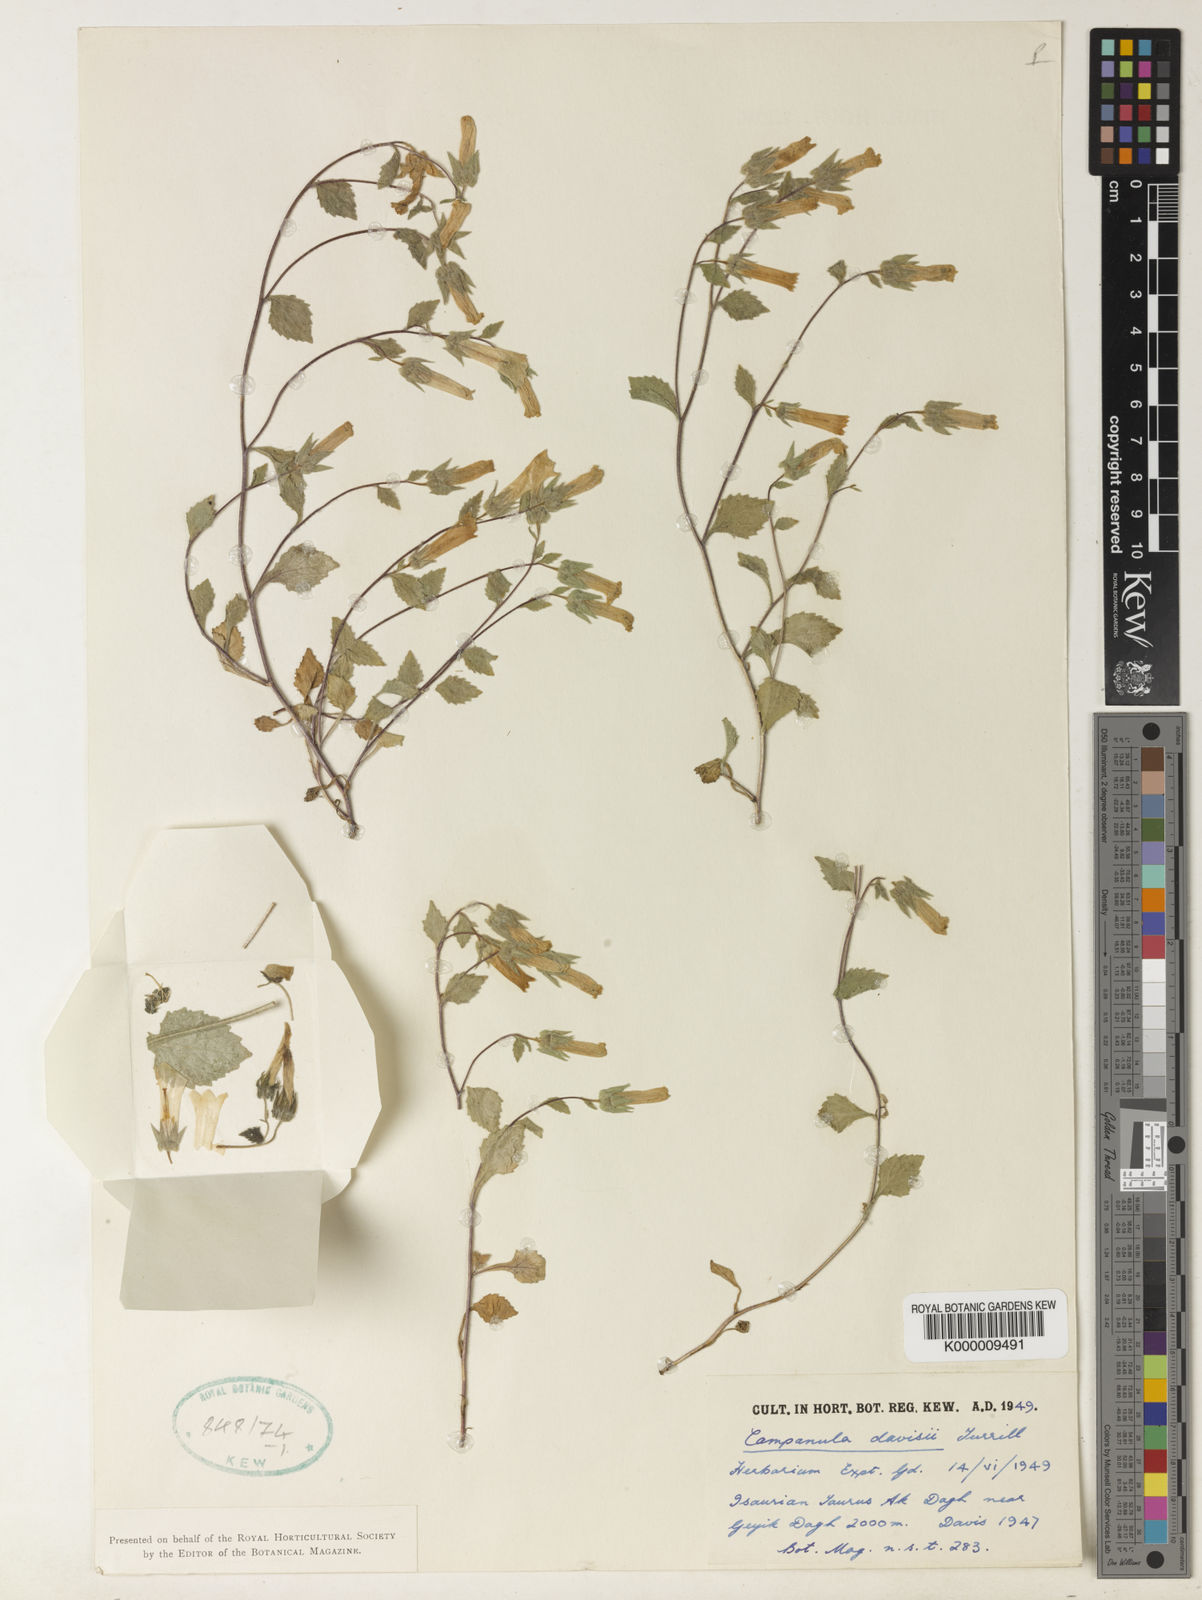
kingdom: Plantae
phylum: Tracheophyta
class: Magnoliopsida
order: Asterales
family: Campanulaceae
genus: Campanula
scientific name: Campanula davisii
